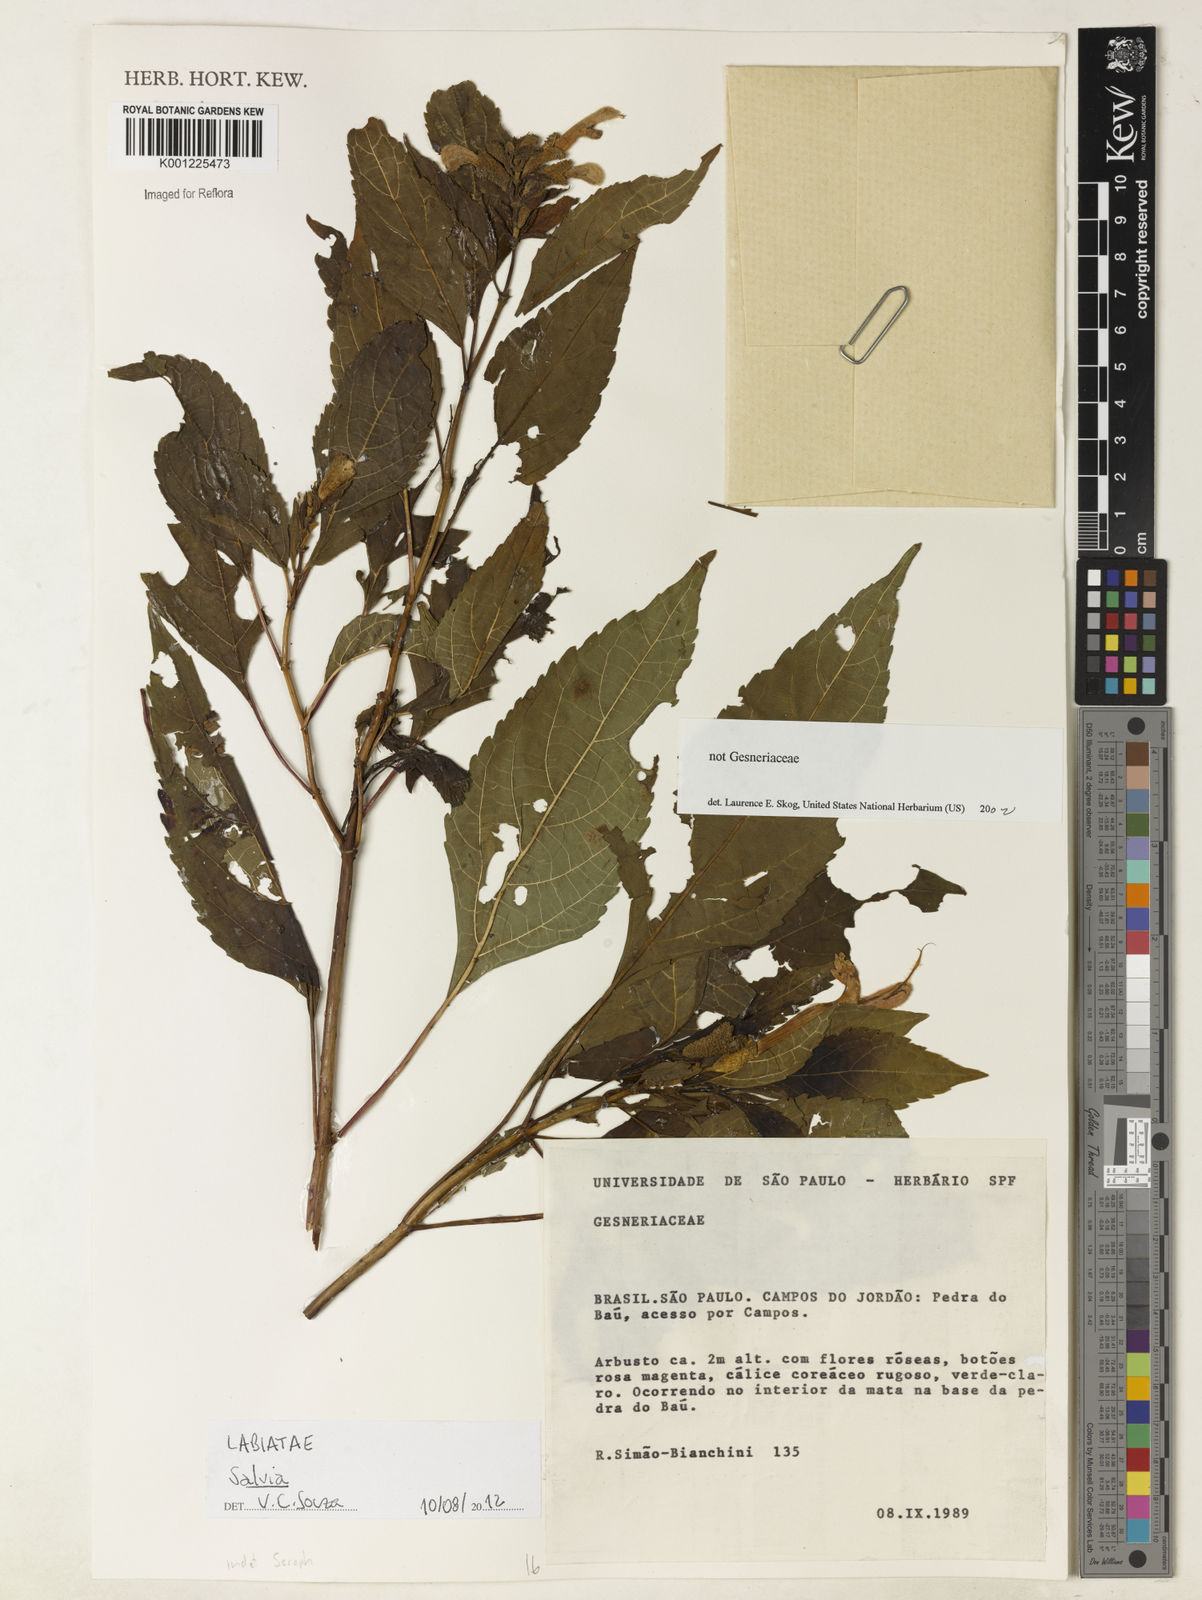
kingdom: Plantae
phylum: Tracheophyta
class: Magnoliopsida
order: Lamiales
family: Lamiaceae
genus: Salvia
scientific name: Salvia
